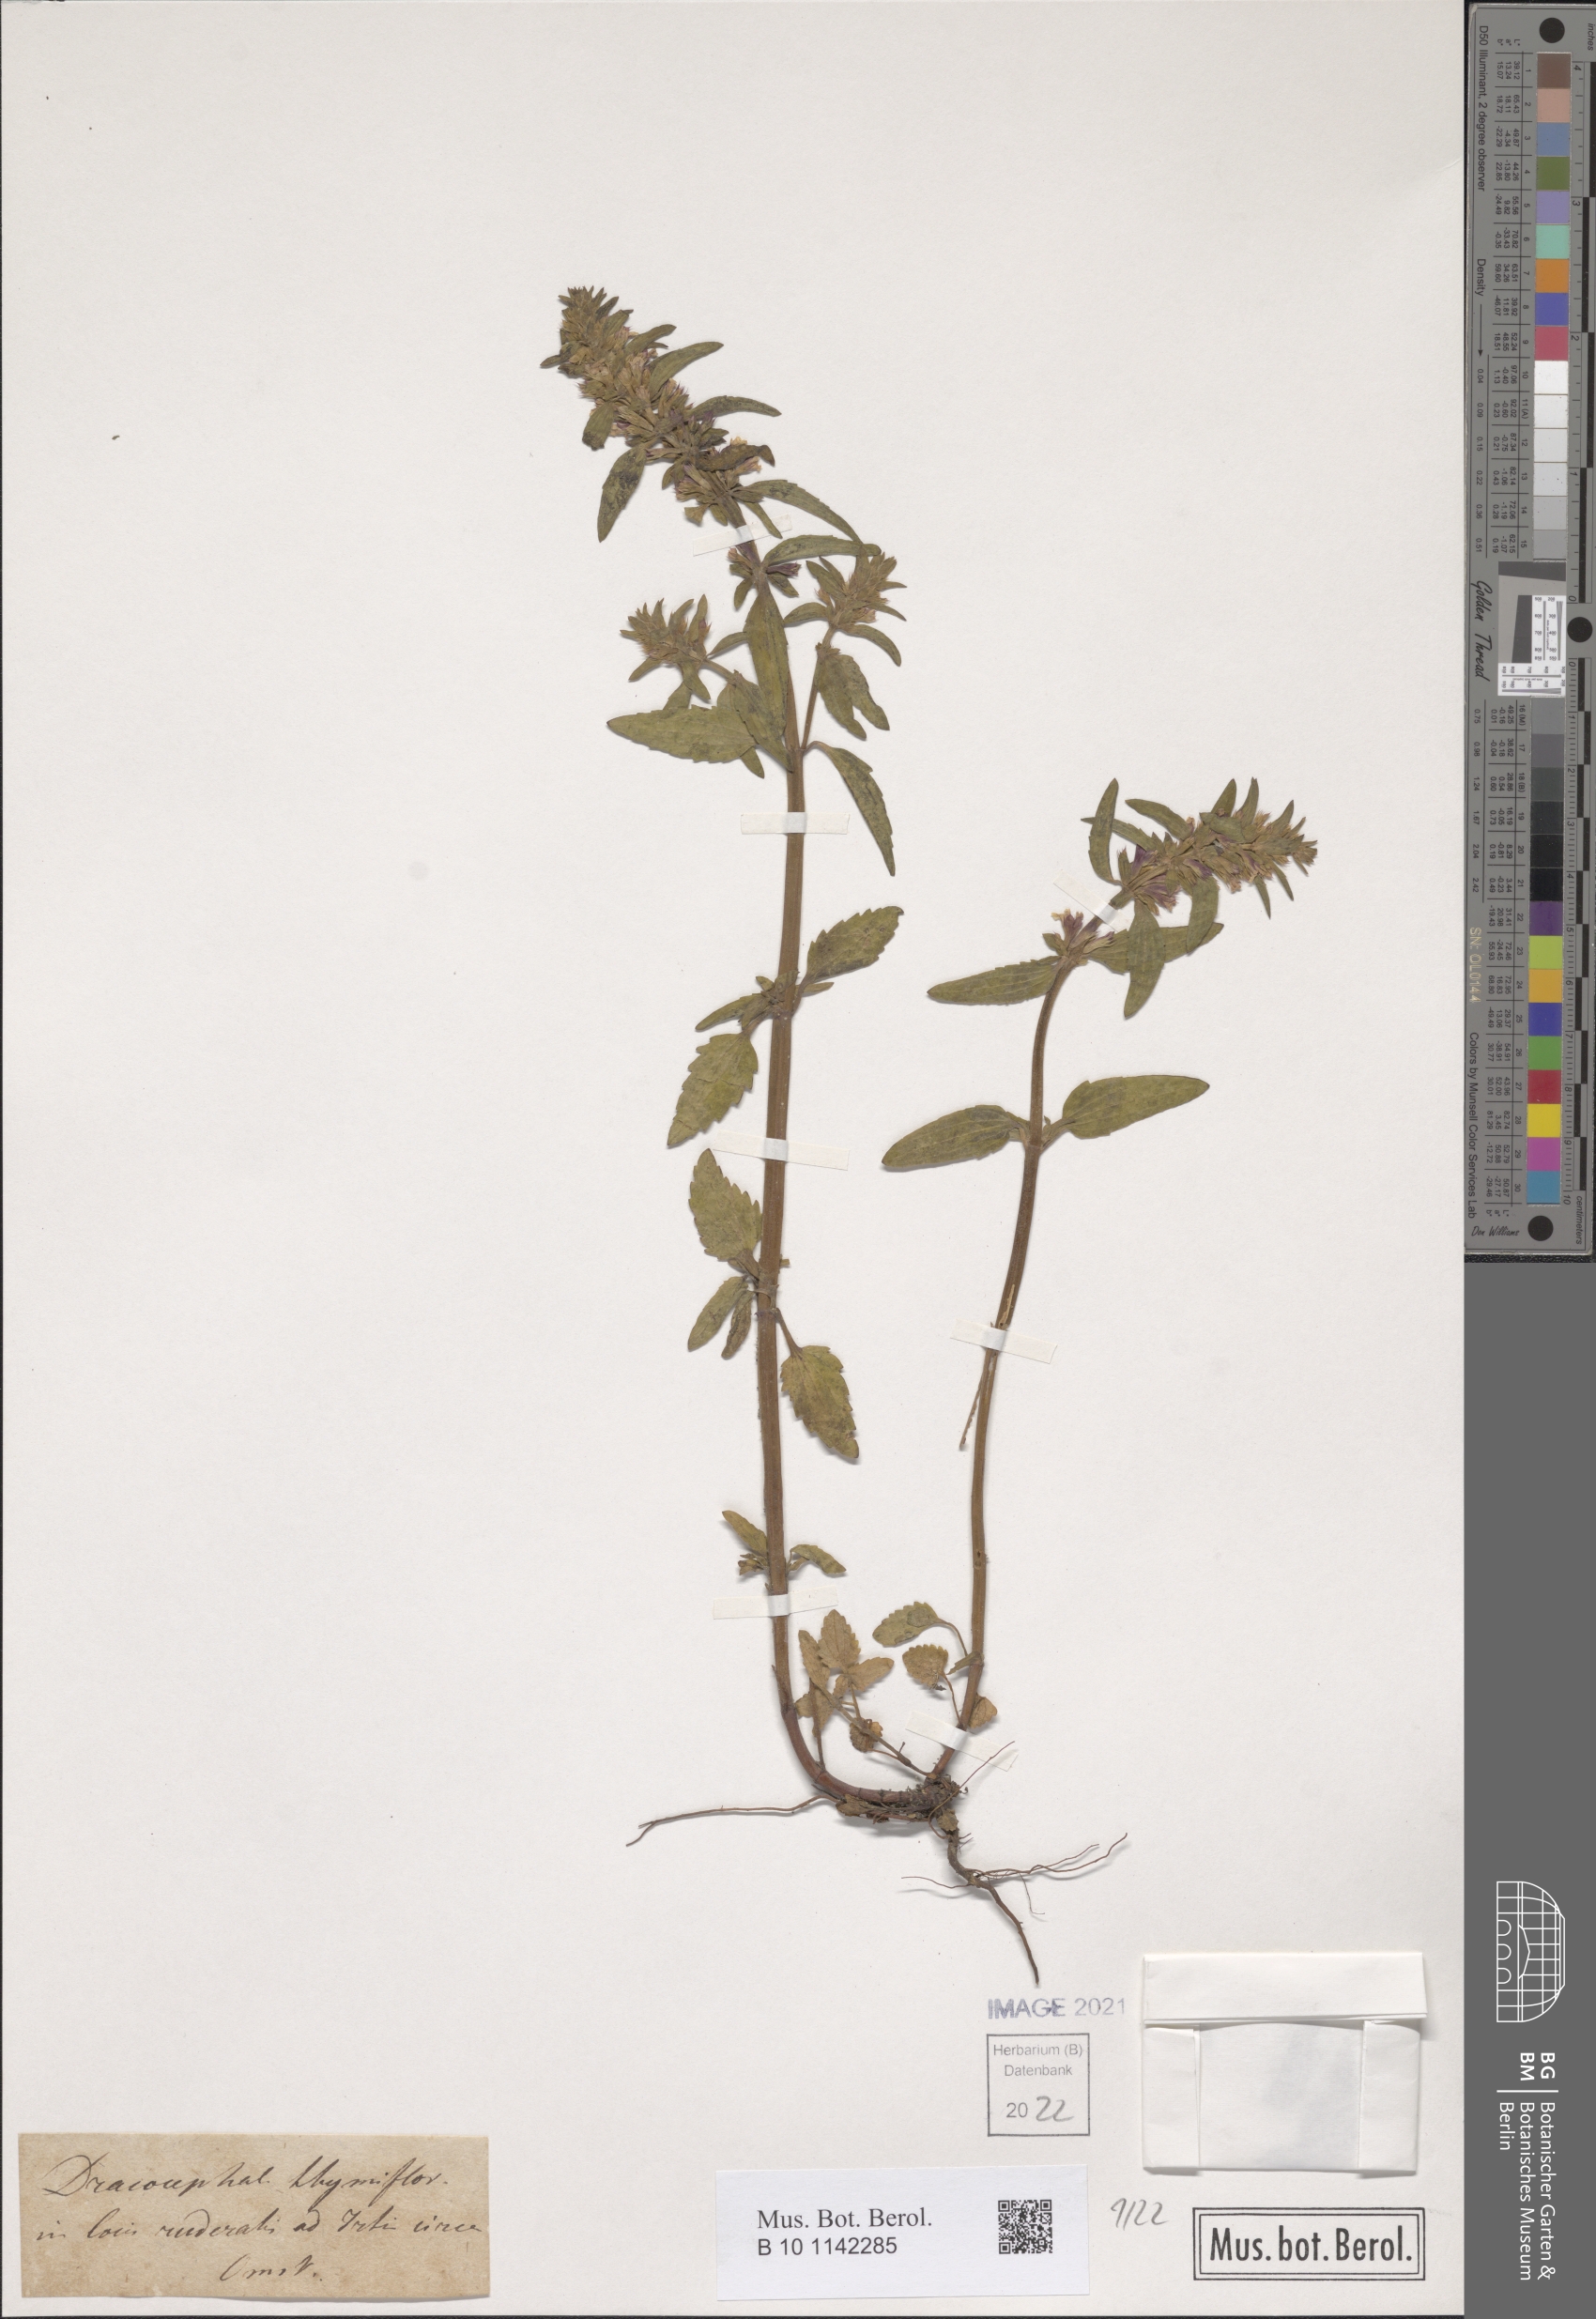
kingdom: Plantae
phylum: Tracheophyta
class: Magnoliopsida
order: Lamiales
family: Lamiaceae
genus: Dracocephalum
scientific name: Dracocephalum thymiflorum
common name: Thymeleaf dragonhead
